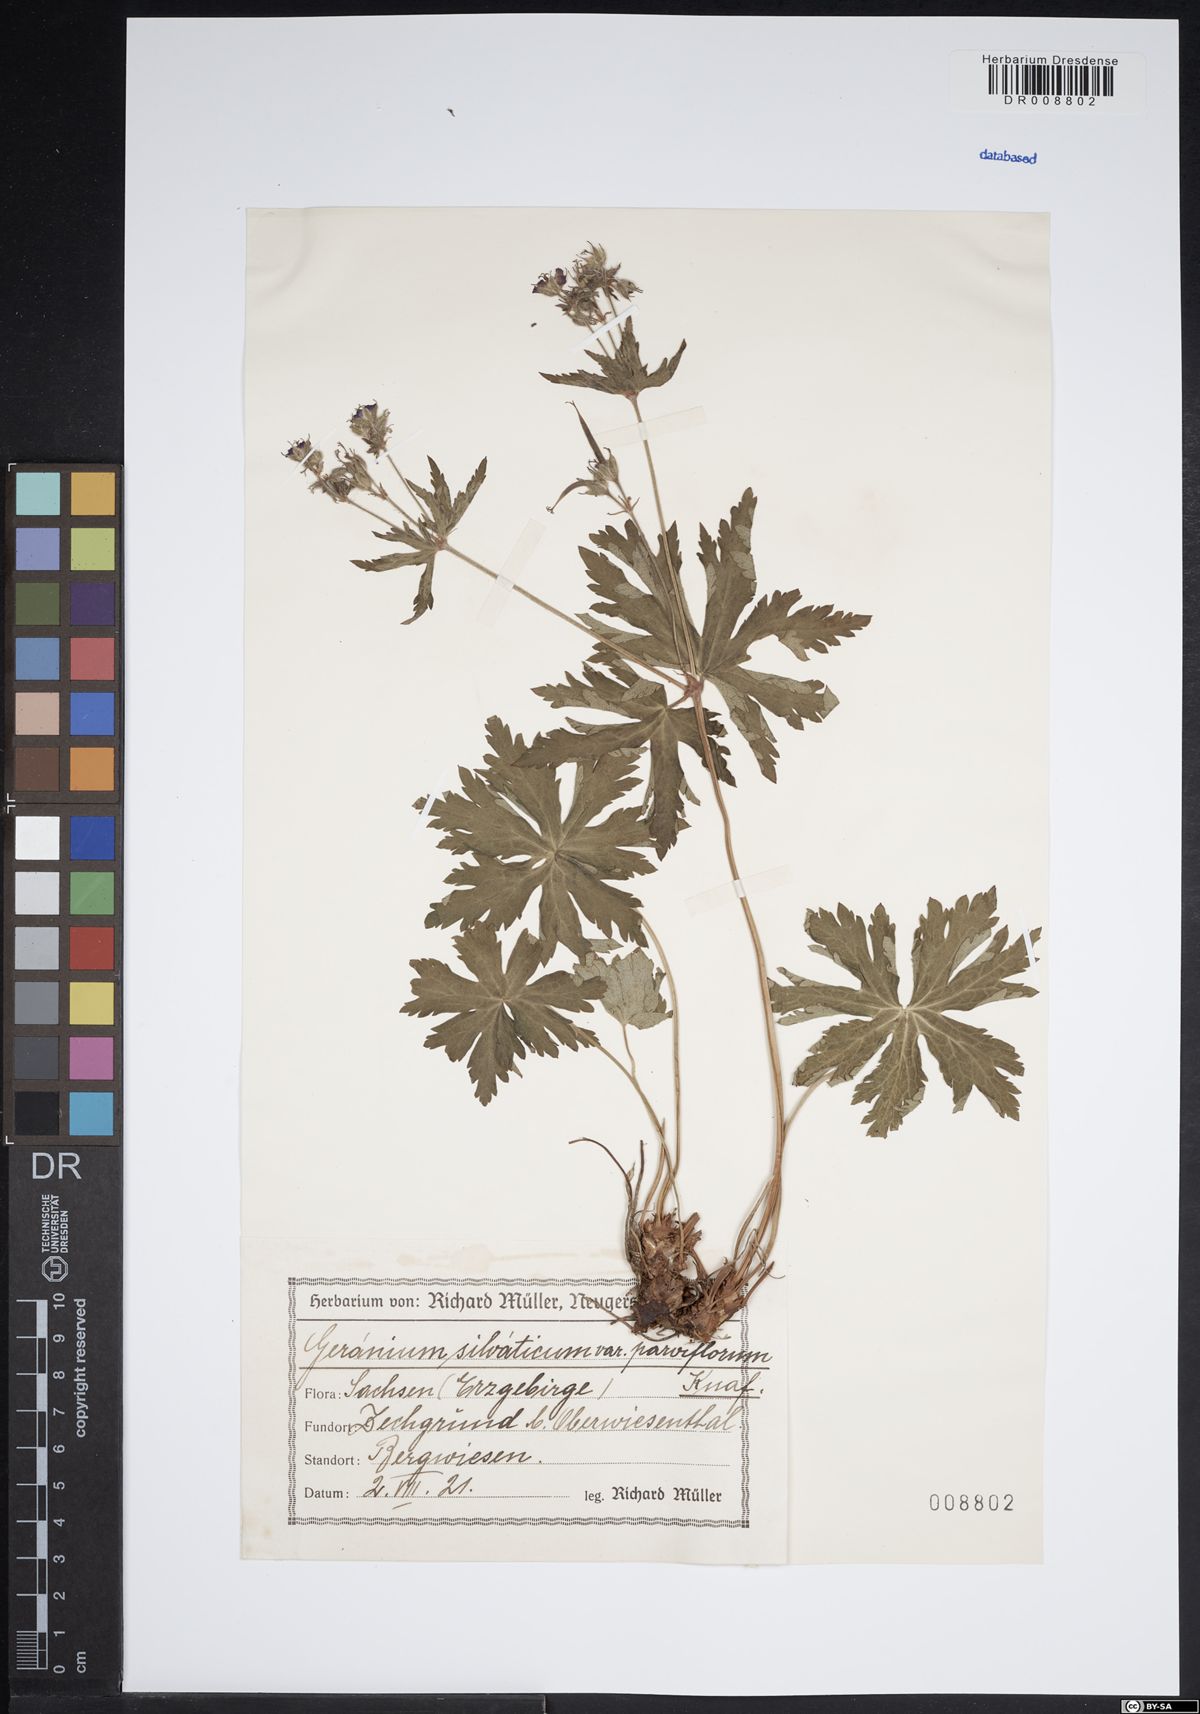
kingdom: Plantae
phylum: Tracheophyta
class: Magnoliopsida
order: Geraniales
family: Geraniaceae
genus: Geranium
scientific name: Geranium sylvaticum
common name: Wood crane's-bill
